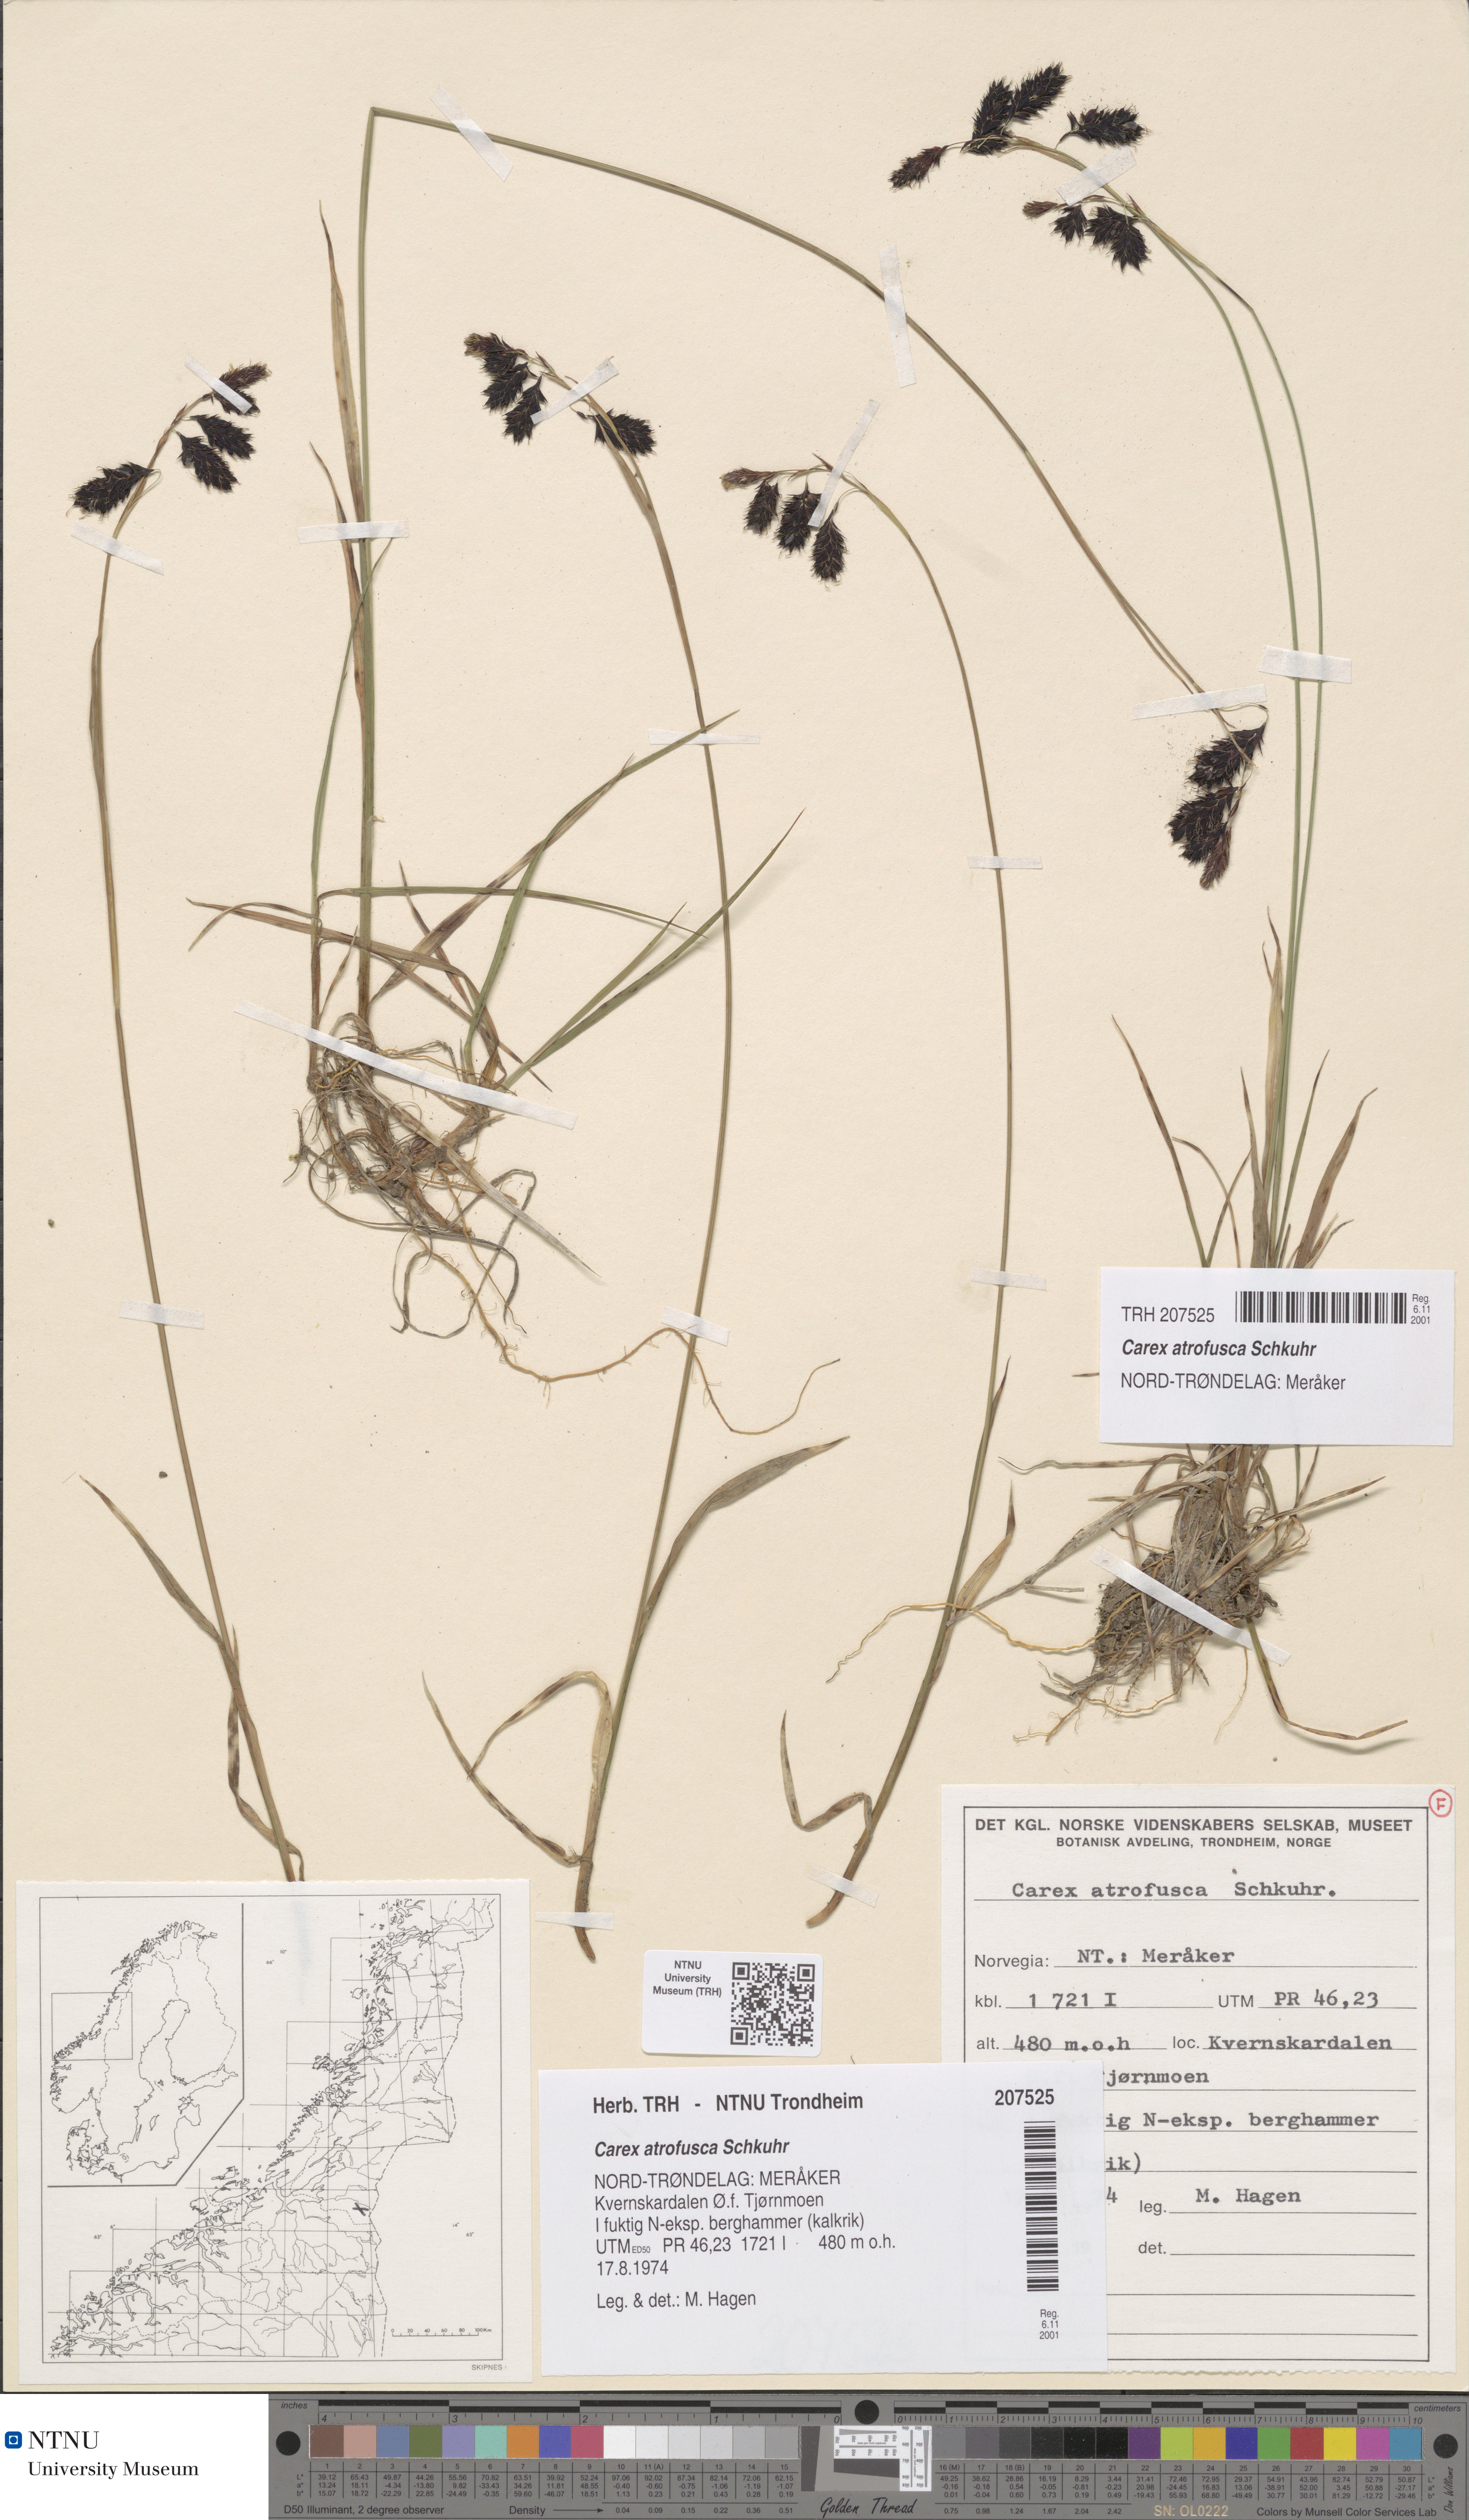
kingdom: Plantae
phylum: Tracheophyta
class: Liliopsida
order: Poales
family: Cyperaceae
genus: Carex
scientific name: Carex atrofusca
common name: Scorched alpine-sedge
